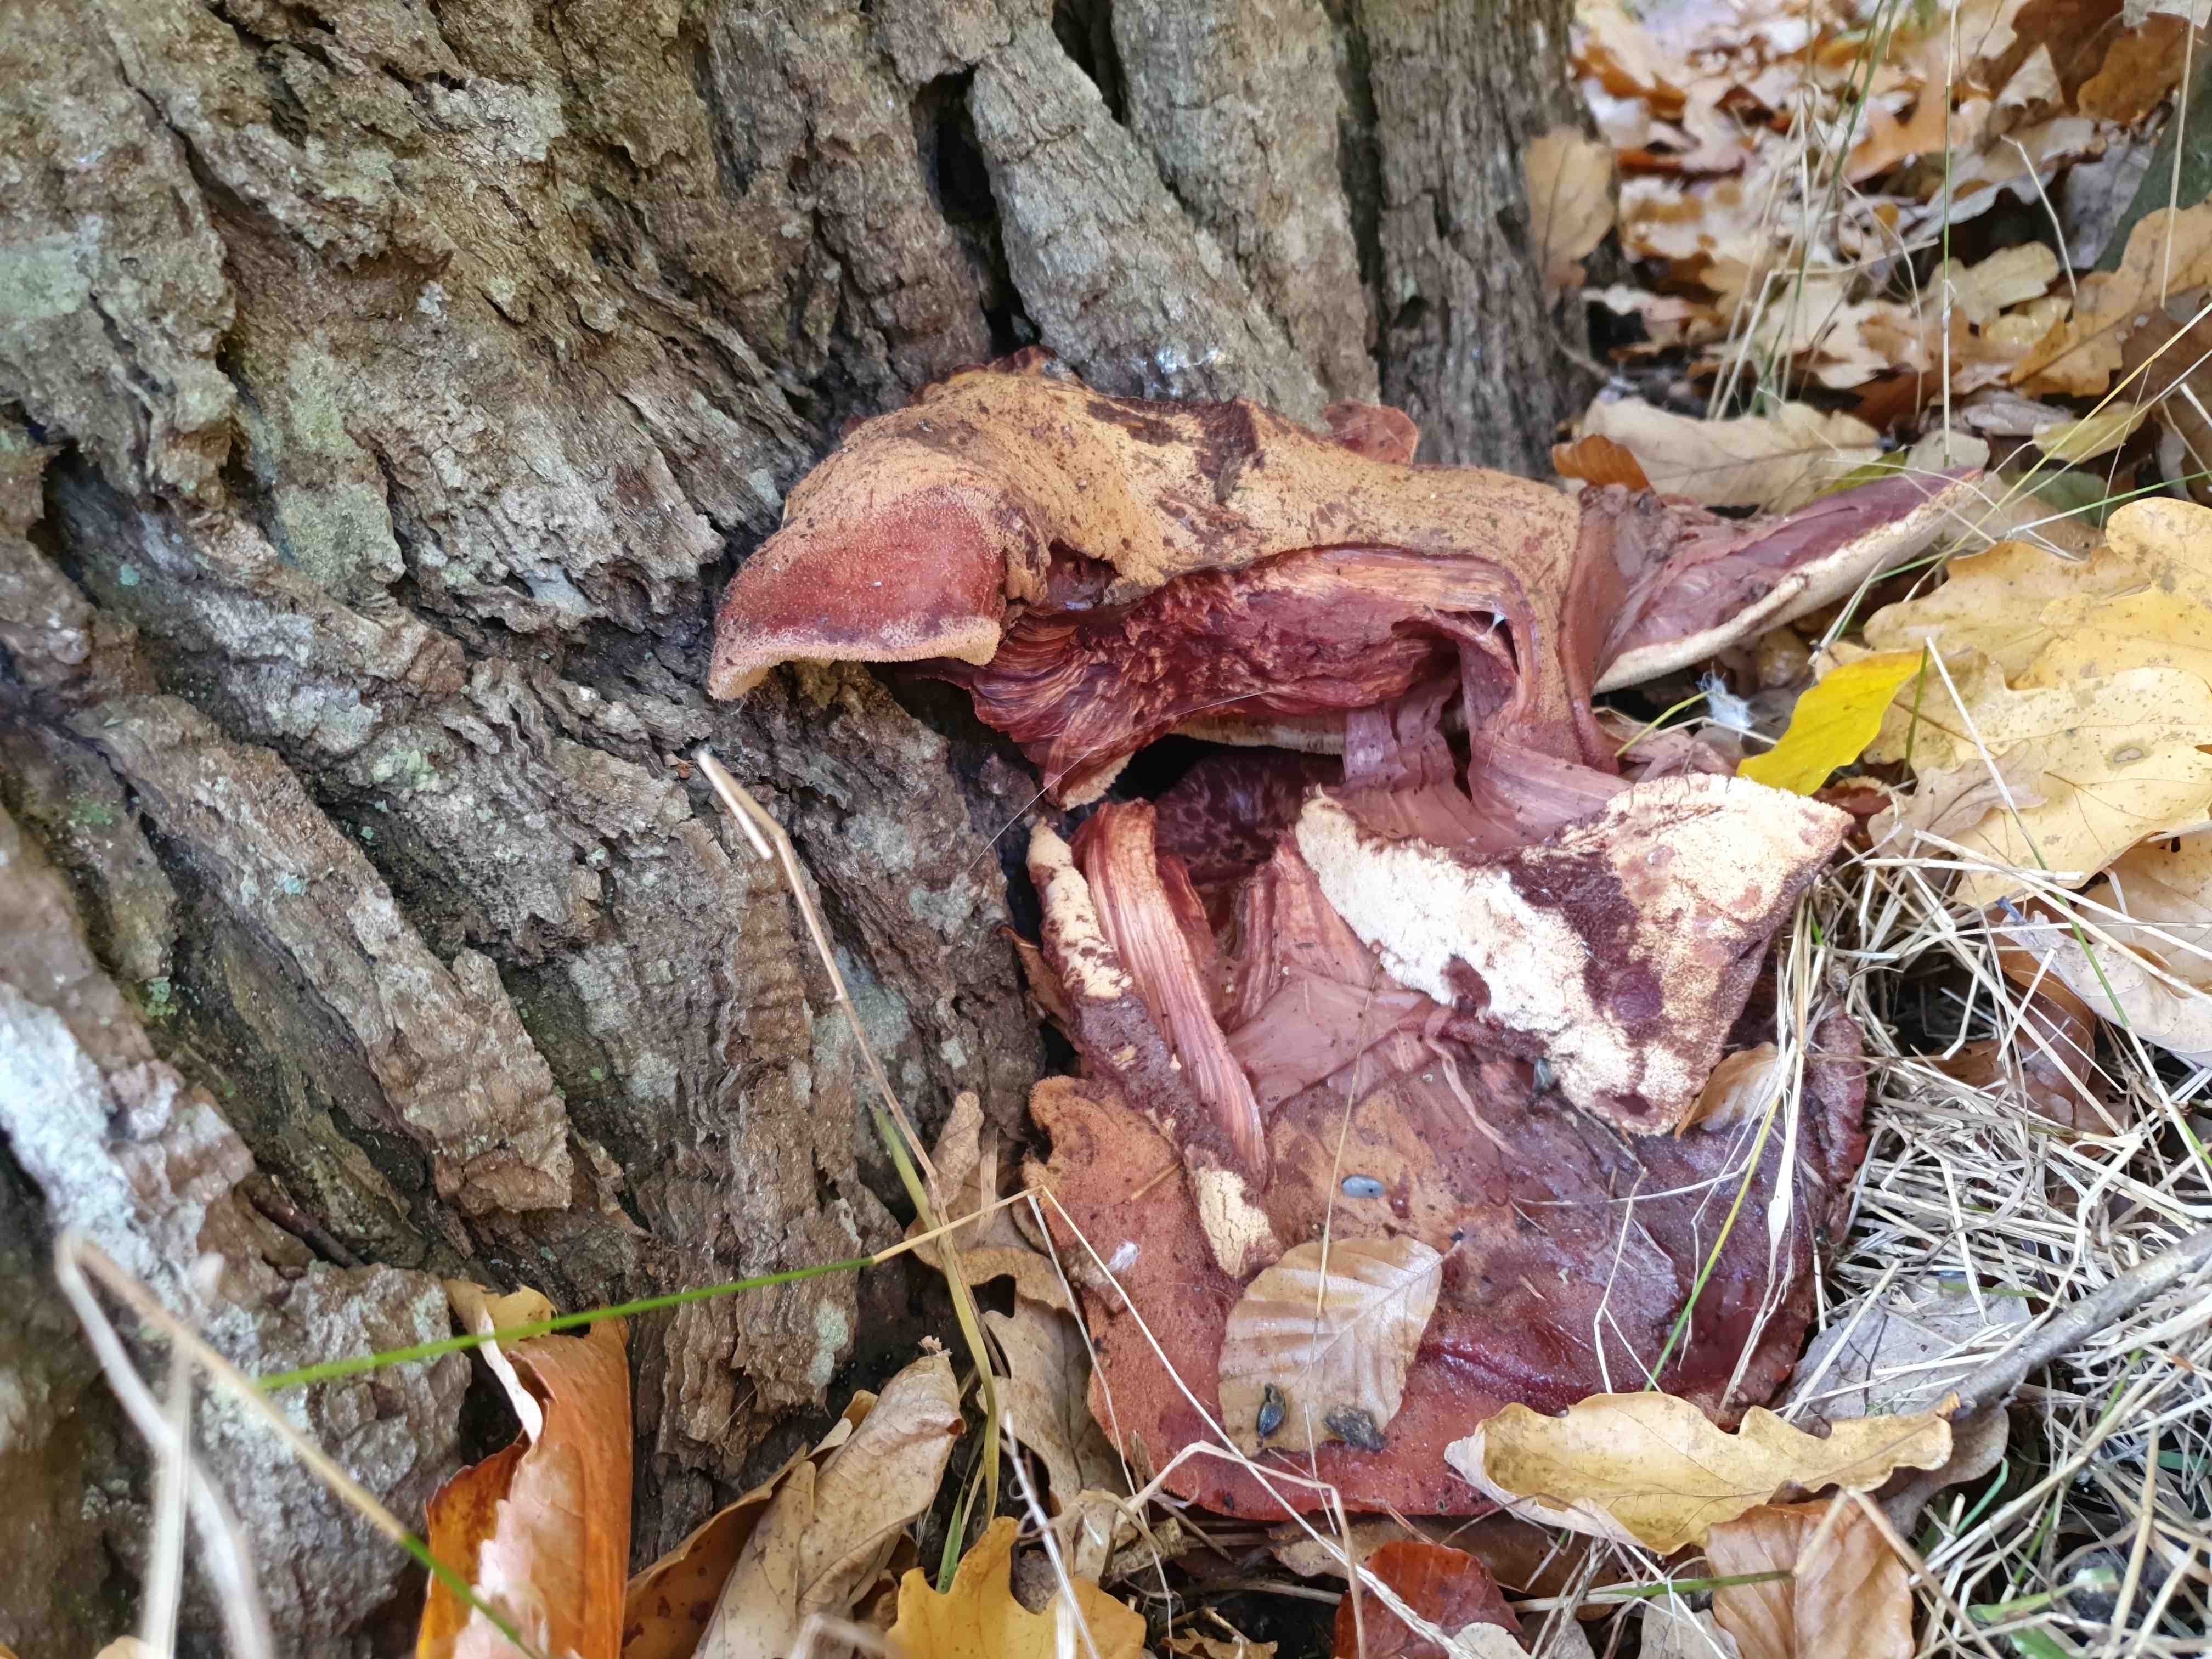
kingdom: Fungi
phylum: Basidiomycota
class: Agaricomycetes
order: Agaricales
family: Fistulinaceae
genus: Fistulina
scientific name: Fistulina hepatica
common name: oksetunge
